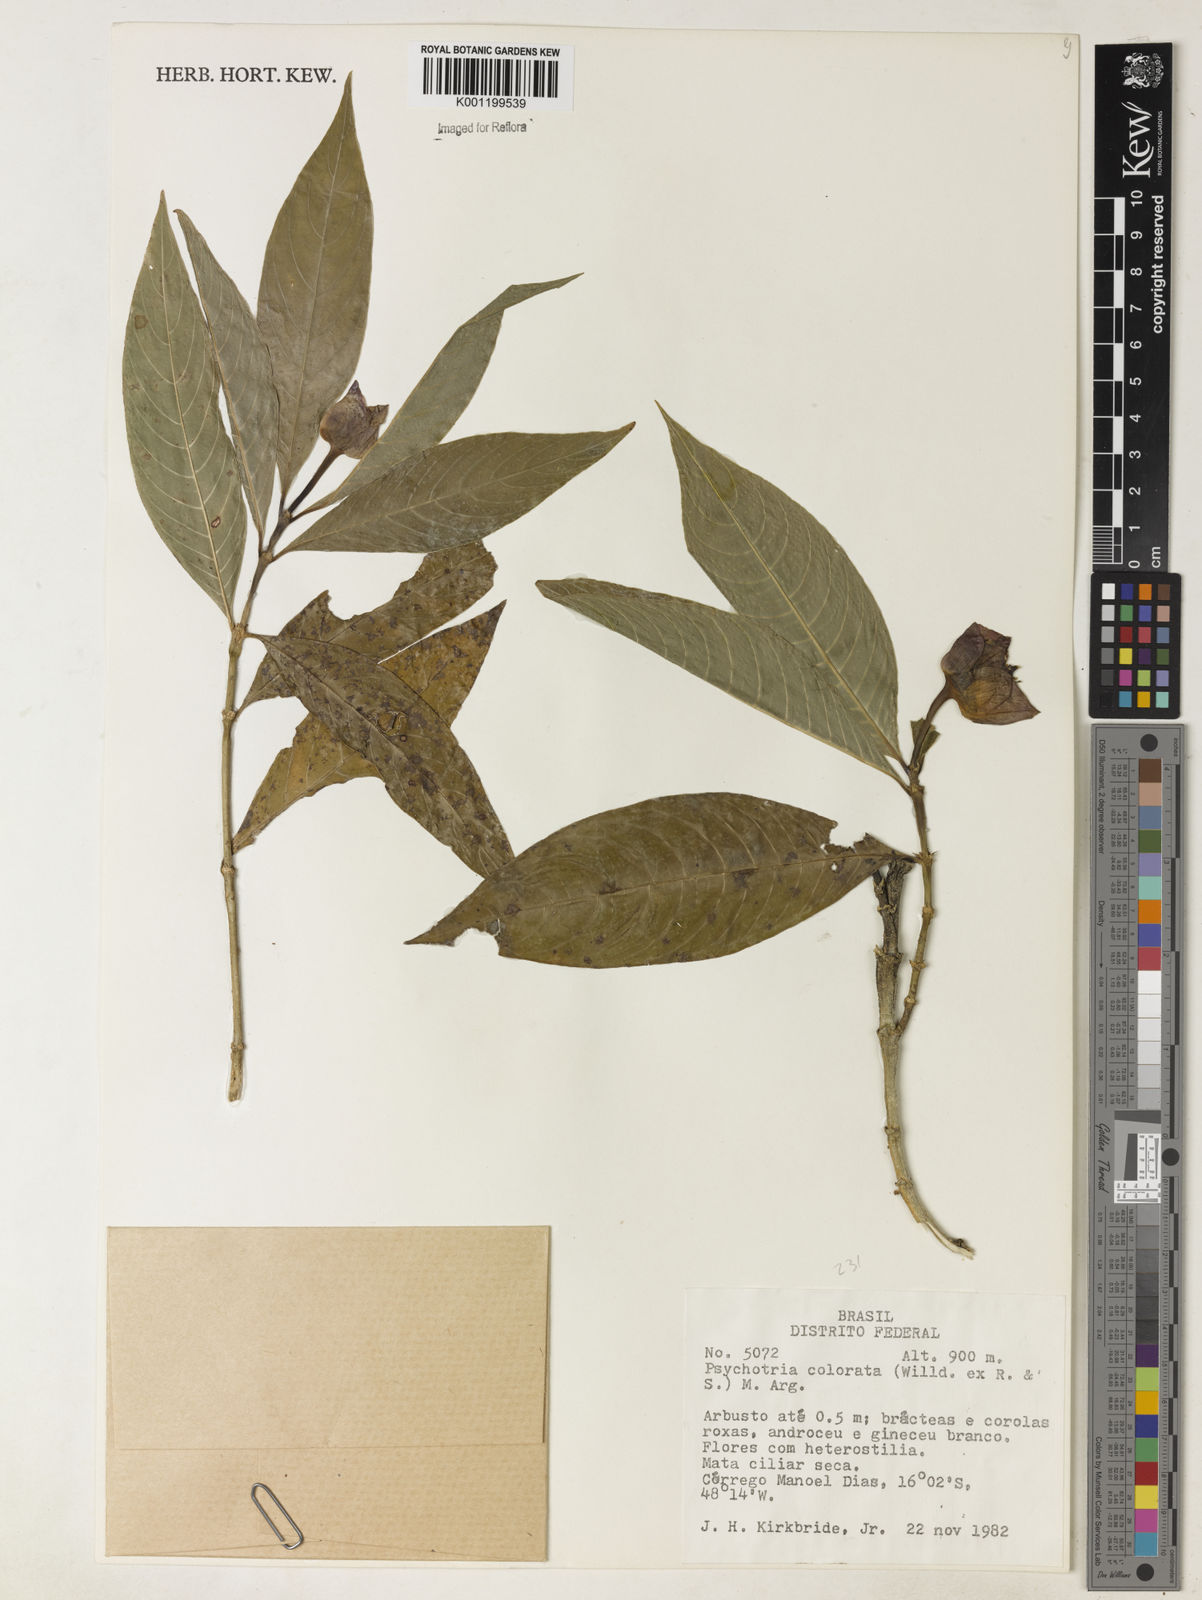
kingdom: Plantae
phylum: Tracheophyta
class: Magnoliopsida
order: Gentianales
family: Rubiaceae
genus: Psychotria
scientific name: Psychotria
